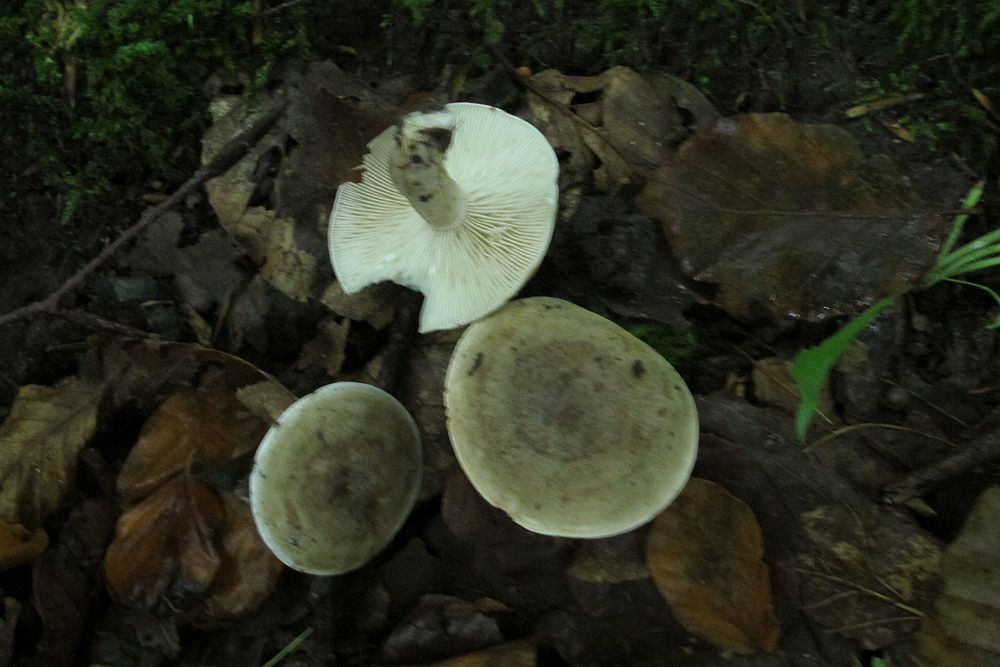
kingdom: Fungi
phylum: Basidiomycota
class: Agaricomycetes
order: Russulales
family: Russulaceae
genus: Lactarius
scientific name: Lactarius fluens
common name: lysrandet mælkehat
